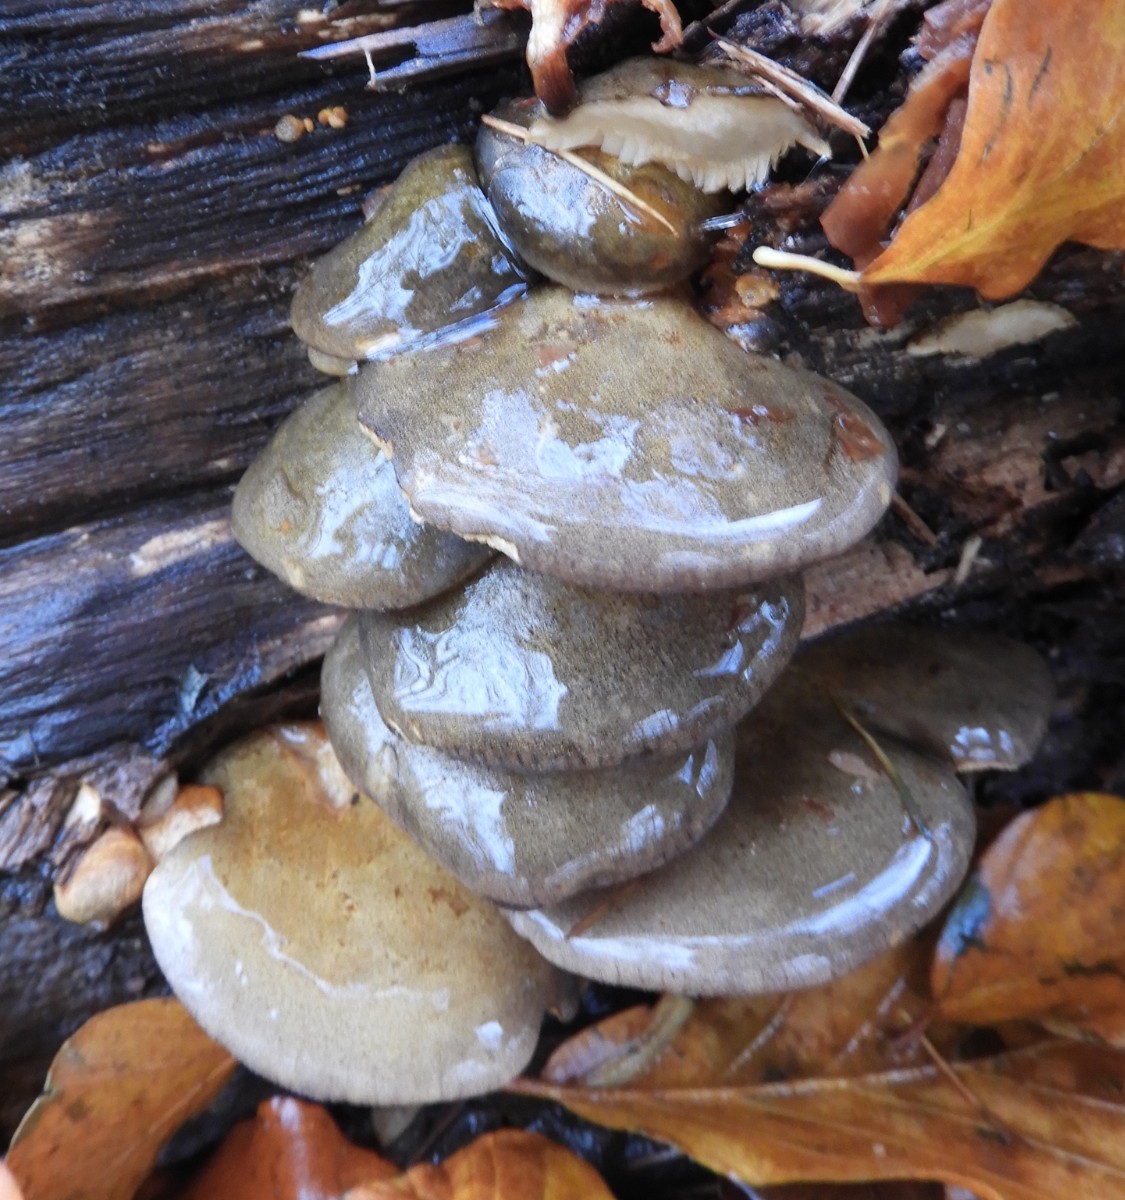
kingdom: Fungi
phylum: Basidiomycota
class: Agaricomycetes
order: Agaricales
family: Sarcomyxaceae
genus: Sarcomyxa
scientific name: Sarcomyxa serotina
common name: gummihat
